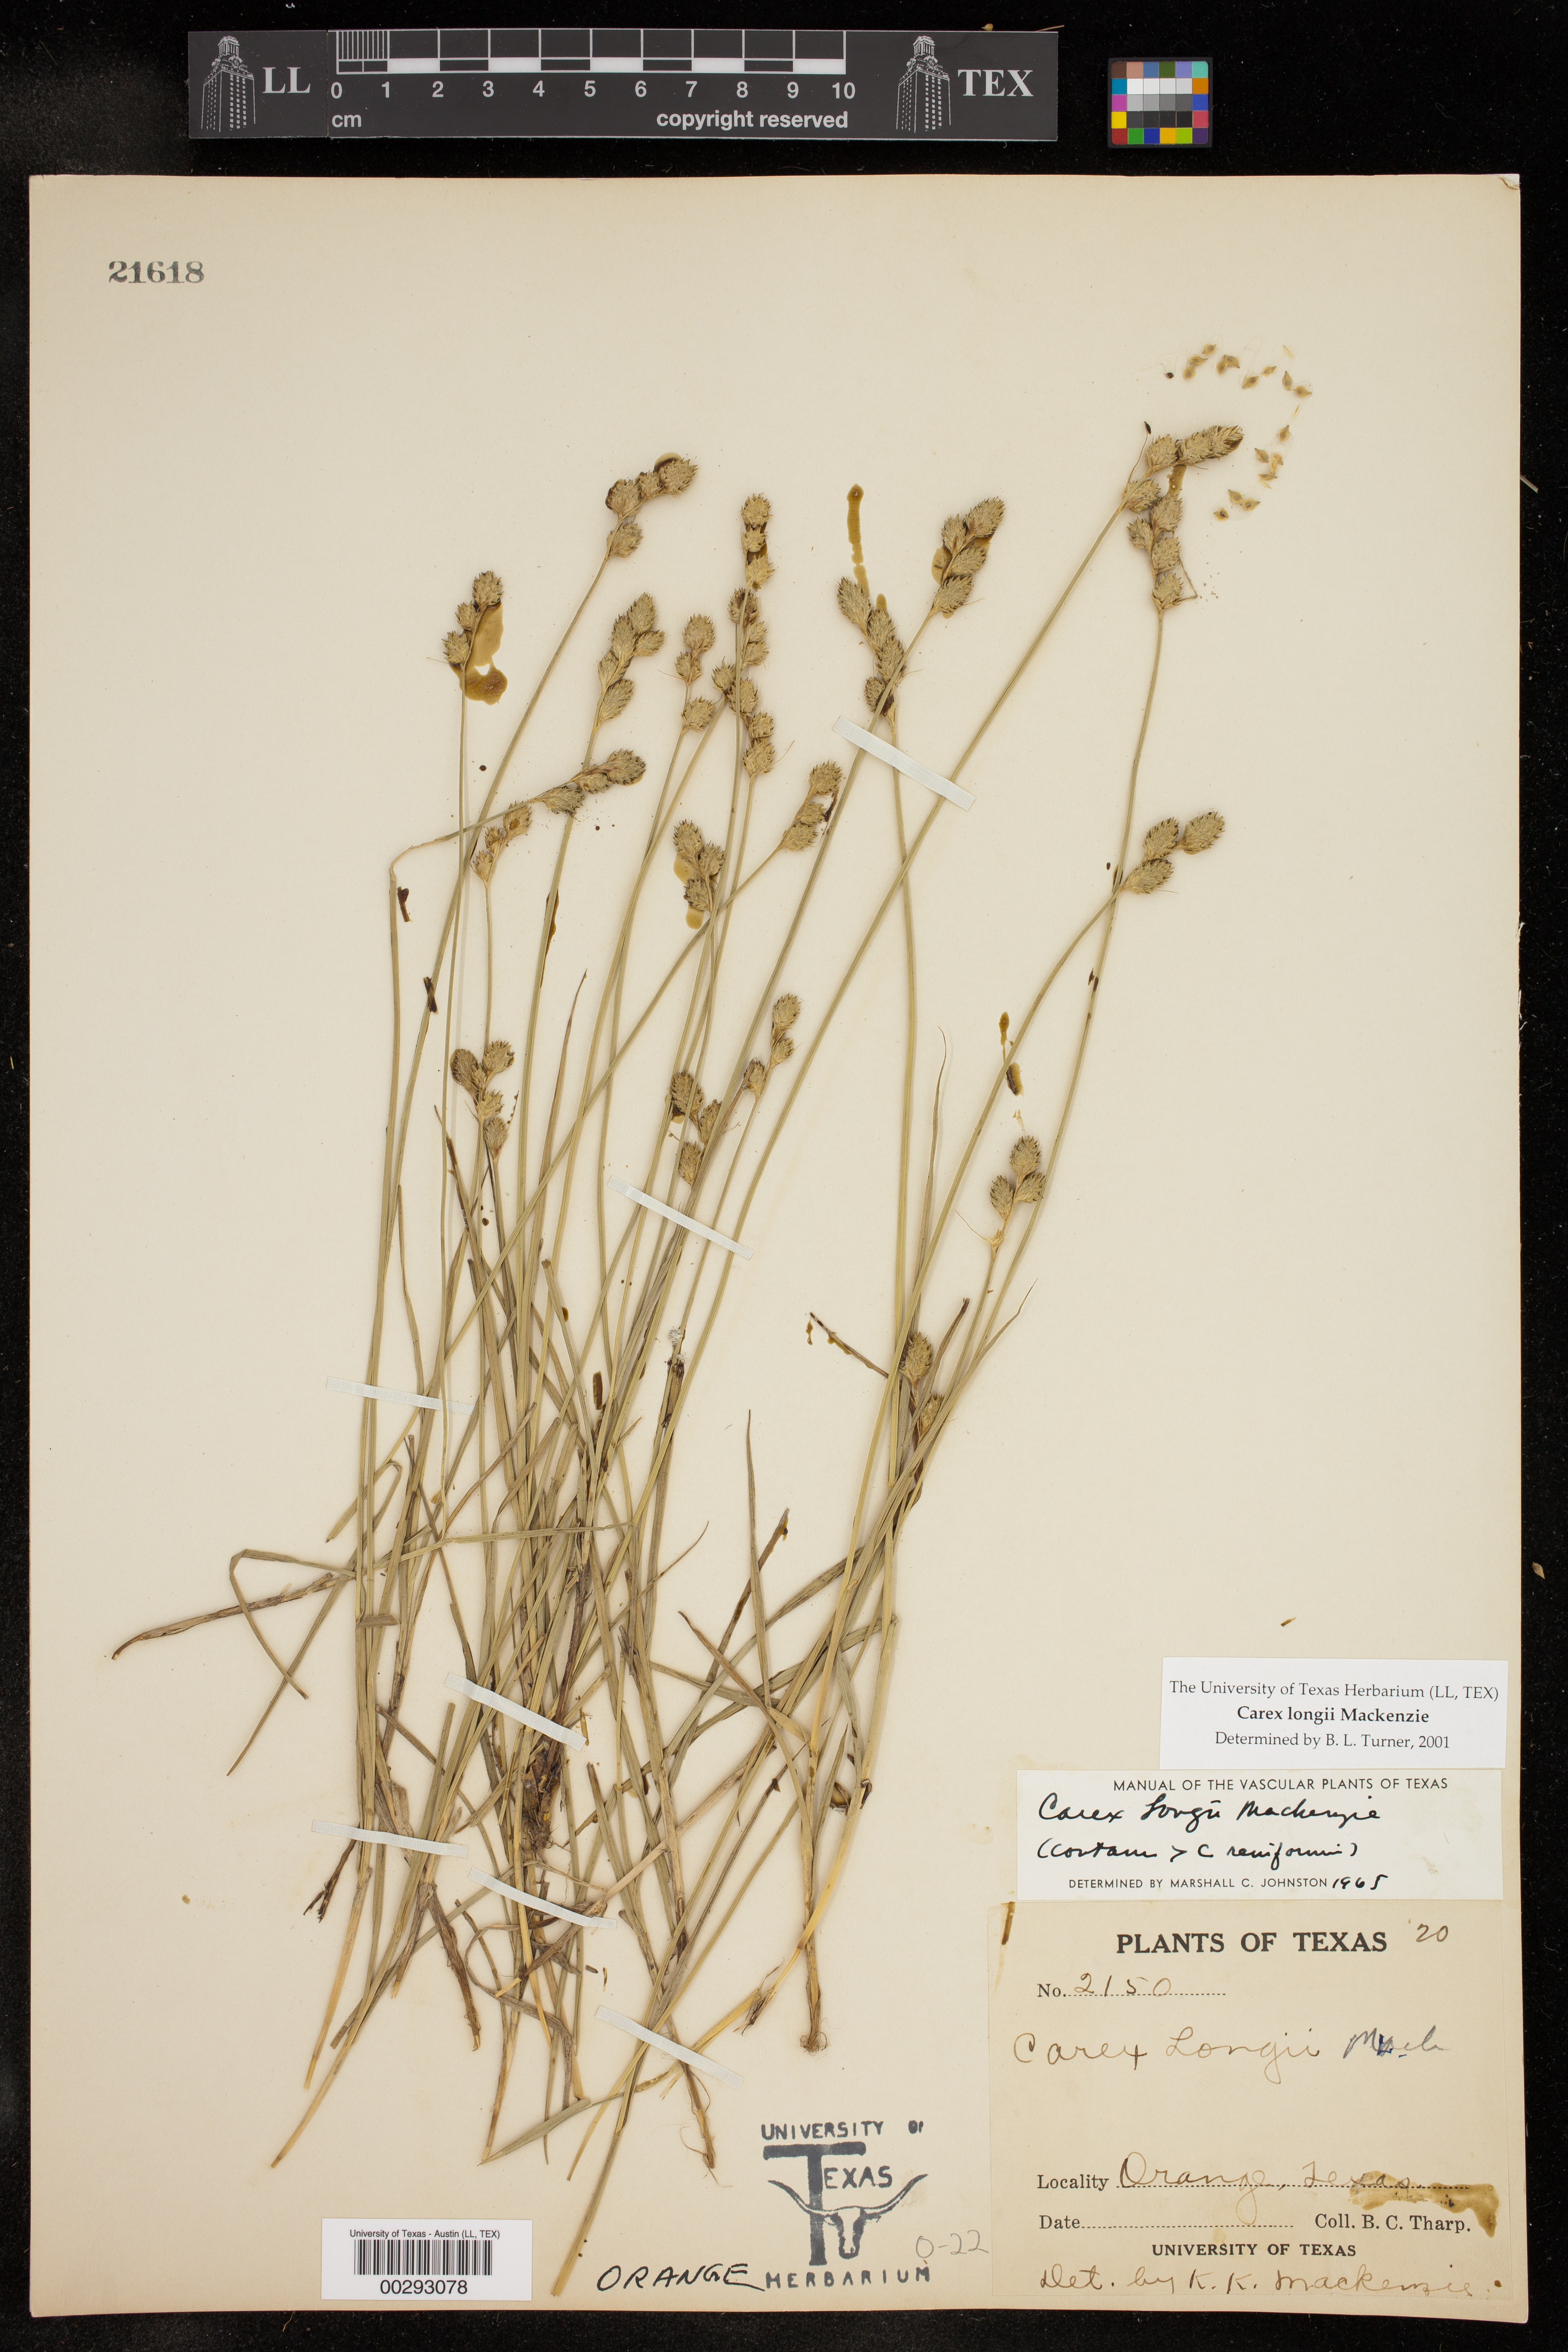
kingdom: Plantae
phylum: Tracheophyta
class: Liliopsida
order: Poales
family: Cyperaceae
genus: Carex
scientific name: Carex longii
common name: Long's sedge
